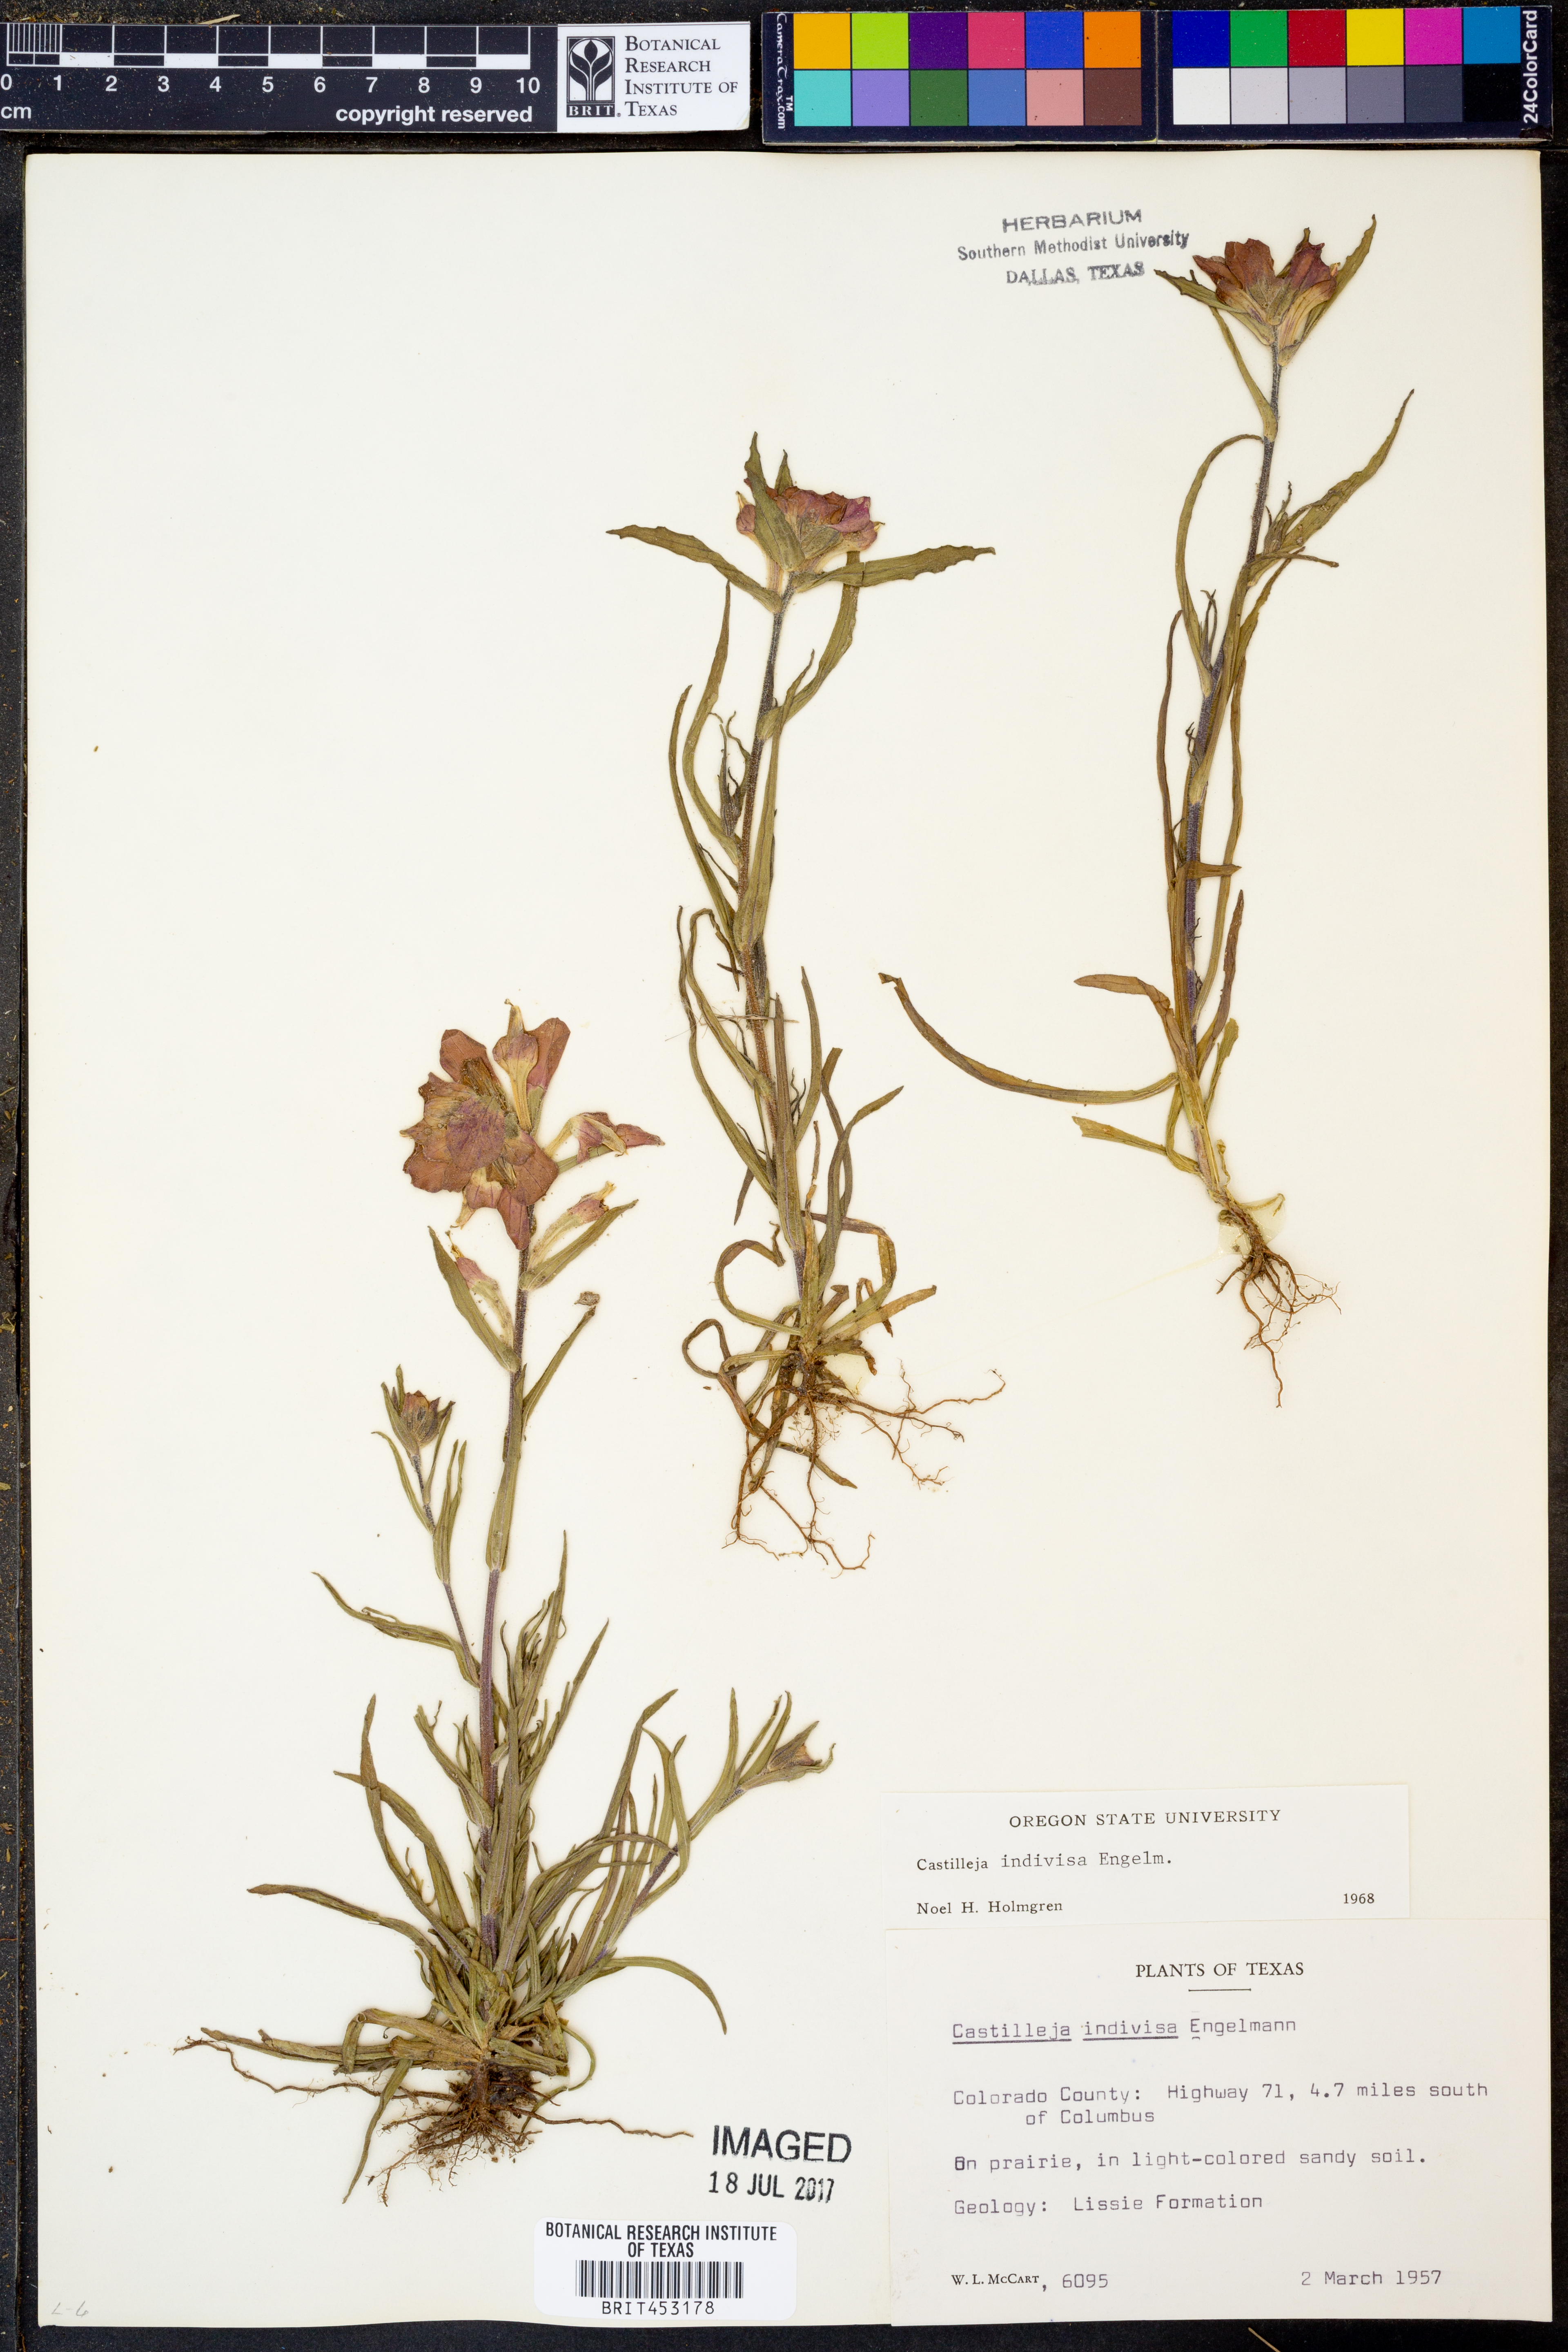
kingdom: Plantae
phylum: Tracheophyta
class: Magnoliopsida
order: Lamiales
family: Orobanchaceae
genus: Castilleja
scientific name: Castilleja indivisa
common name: Texas paintbrush
